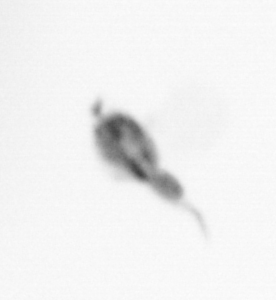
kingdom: Animalia
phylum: Arthropoda
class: Copepoda
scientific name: Copepoda
